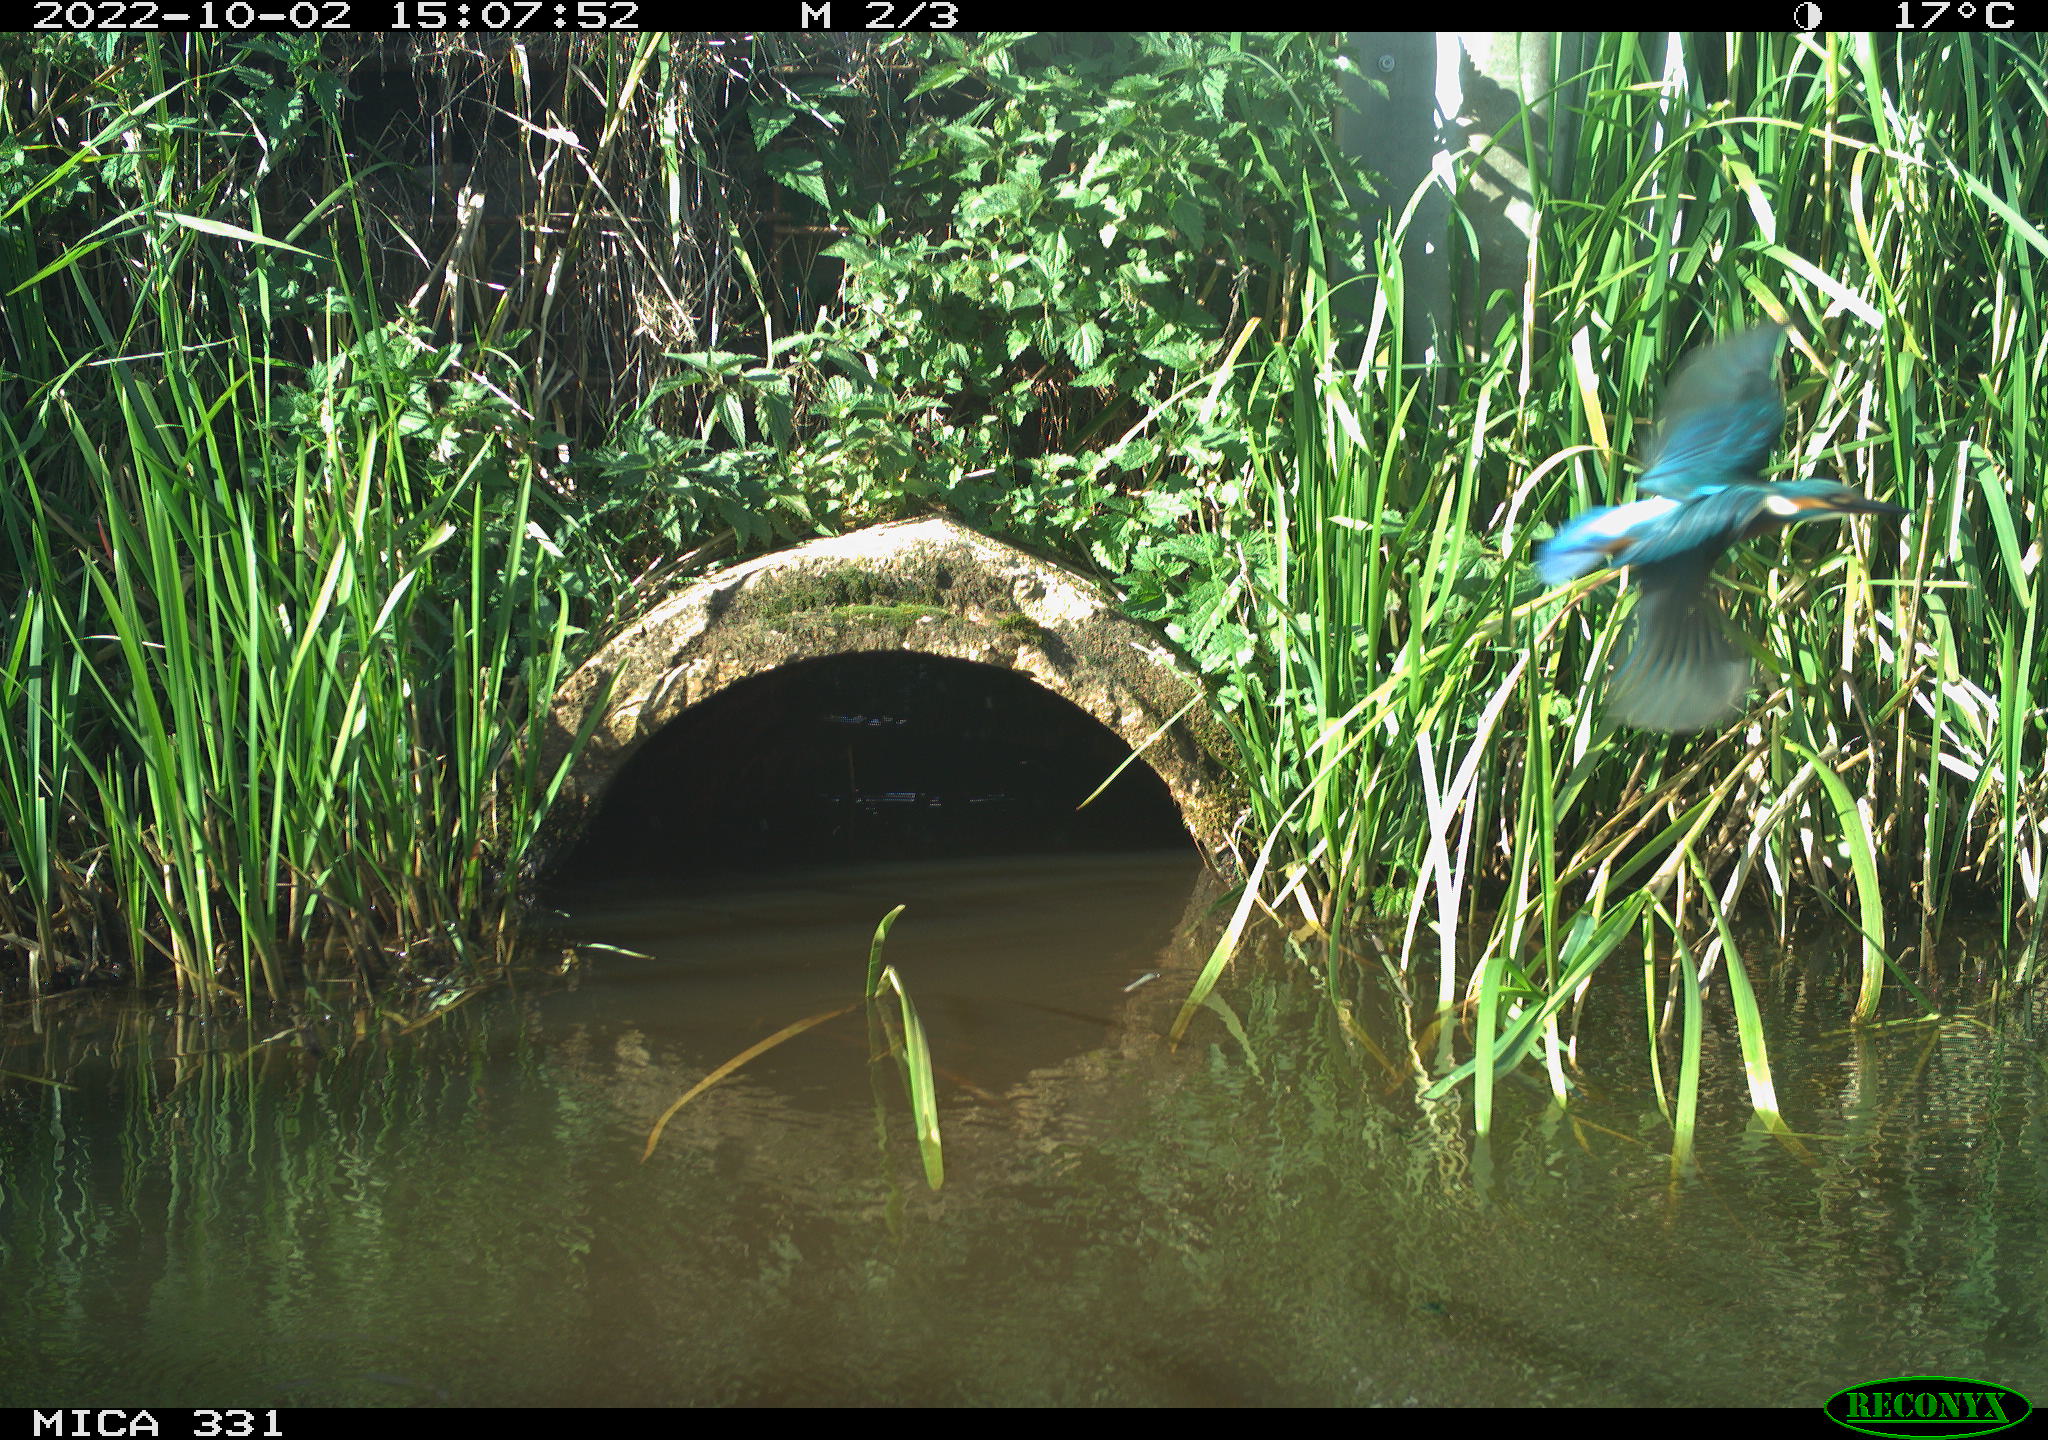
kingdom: Animalia
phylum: Chordata
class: Aves
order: Coraciiformes
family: Alcedinidae
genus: Alcedo
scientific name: Alcedo atthis
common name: Common kingfisher
